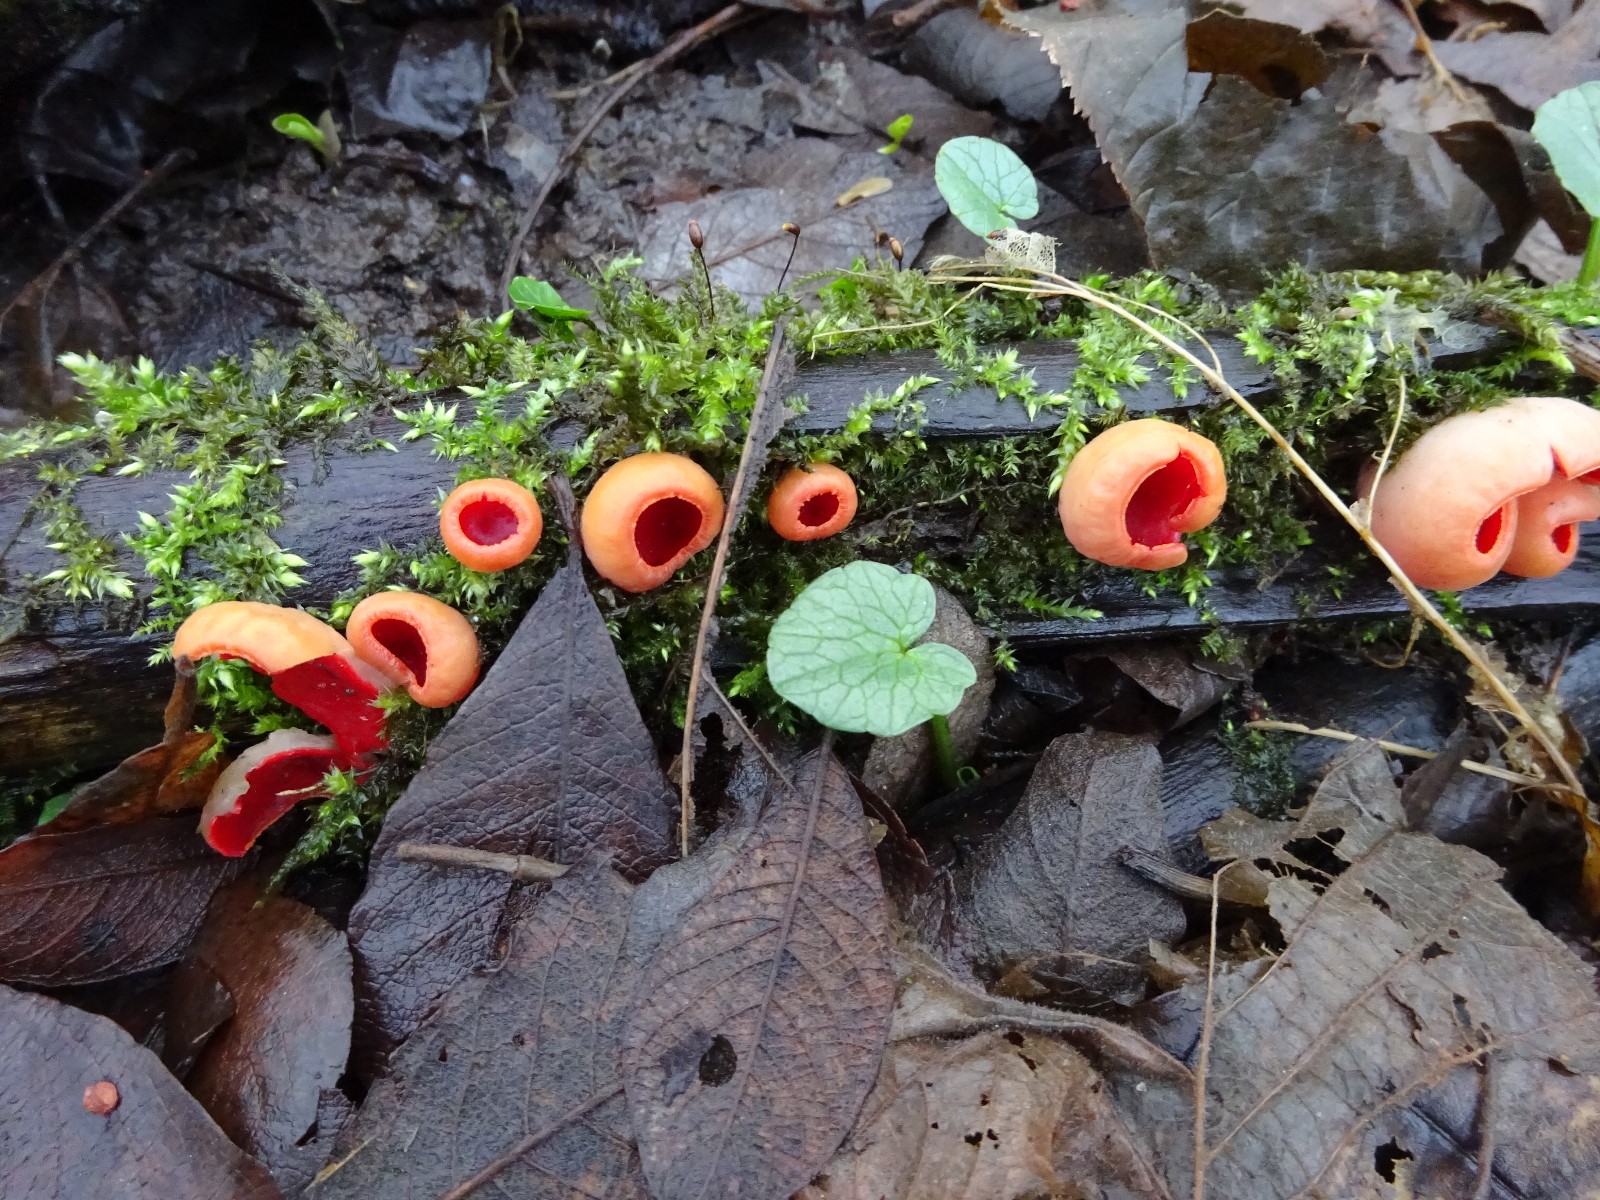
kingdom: Fungi
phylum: Ascomycota
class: Pezizomycetes
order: Pezizales
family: Sarcoscyphaceae
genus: Sarcoscypha
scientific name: Sarcoscypha austriaca
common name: krølhåret pragtbæger
